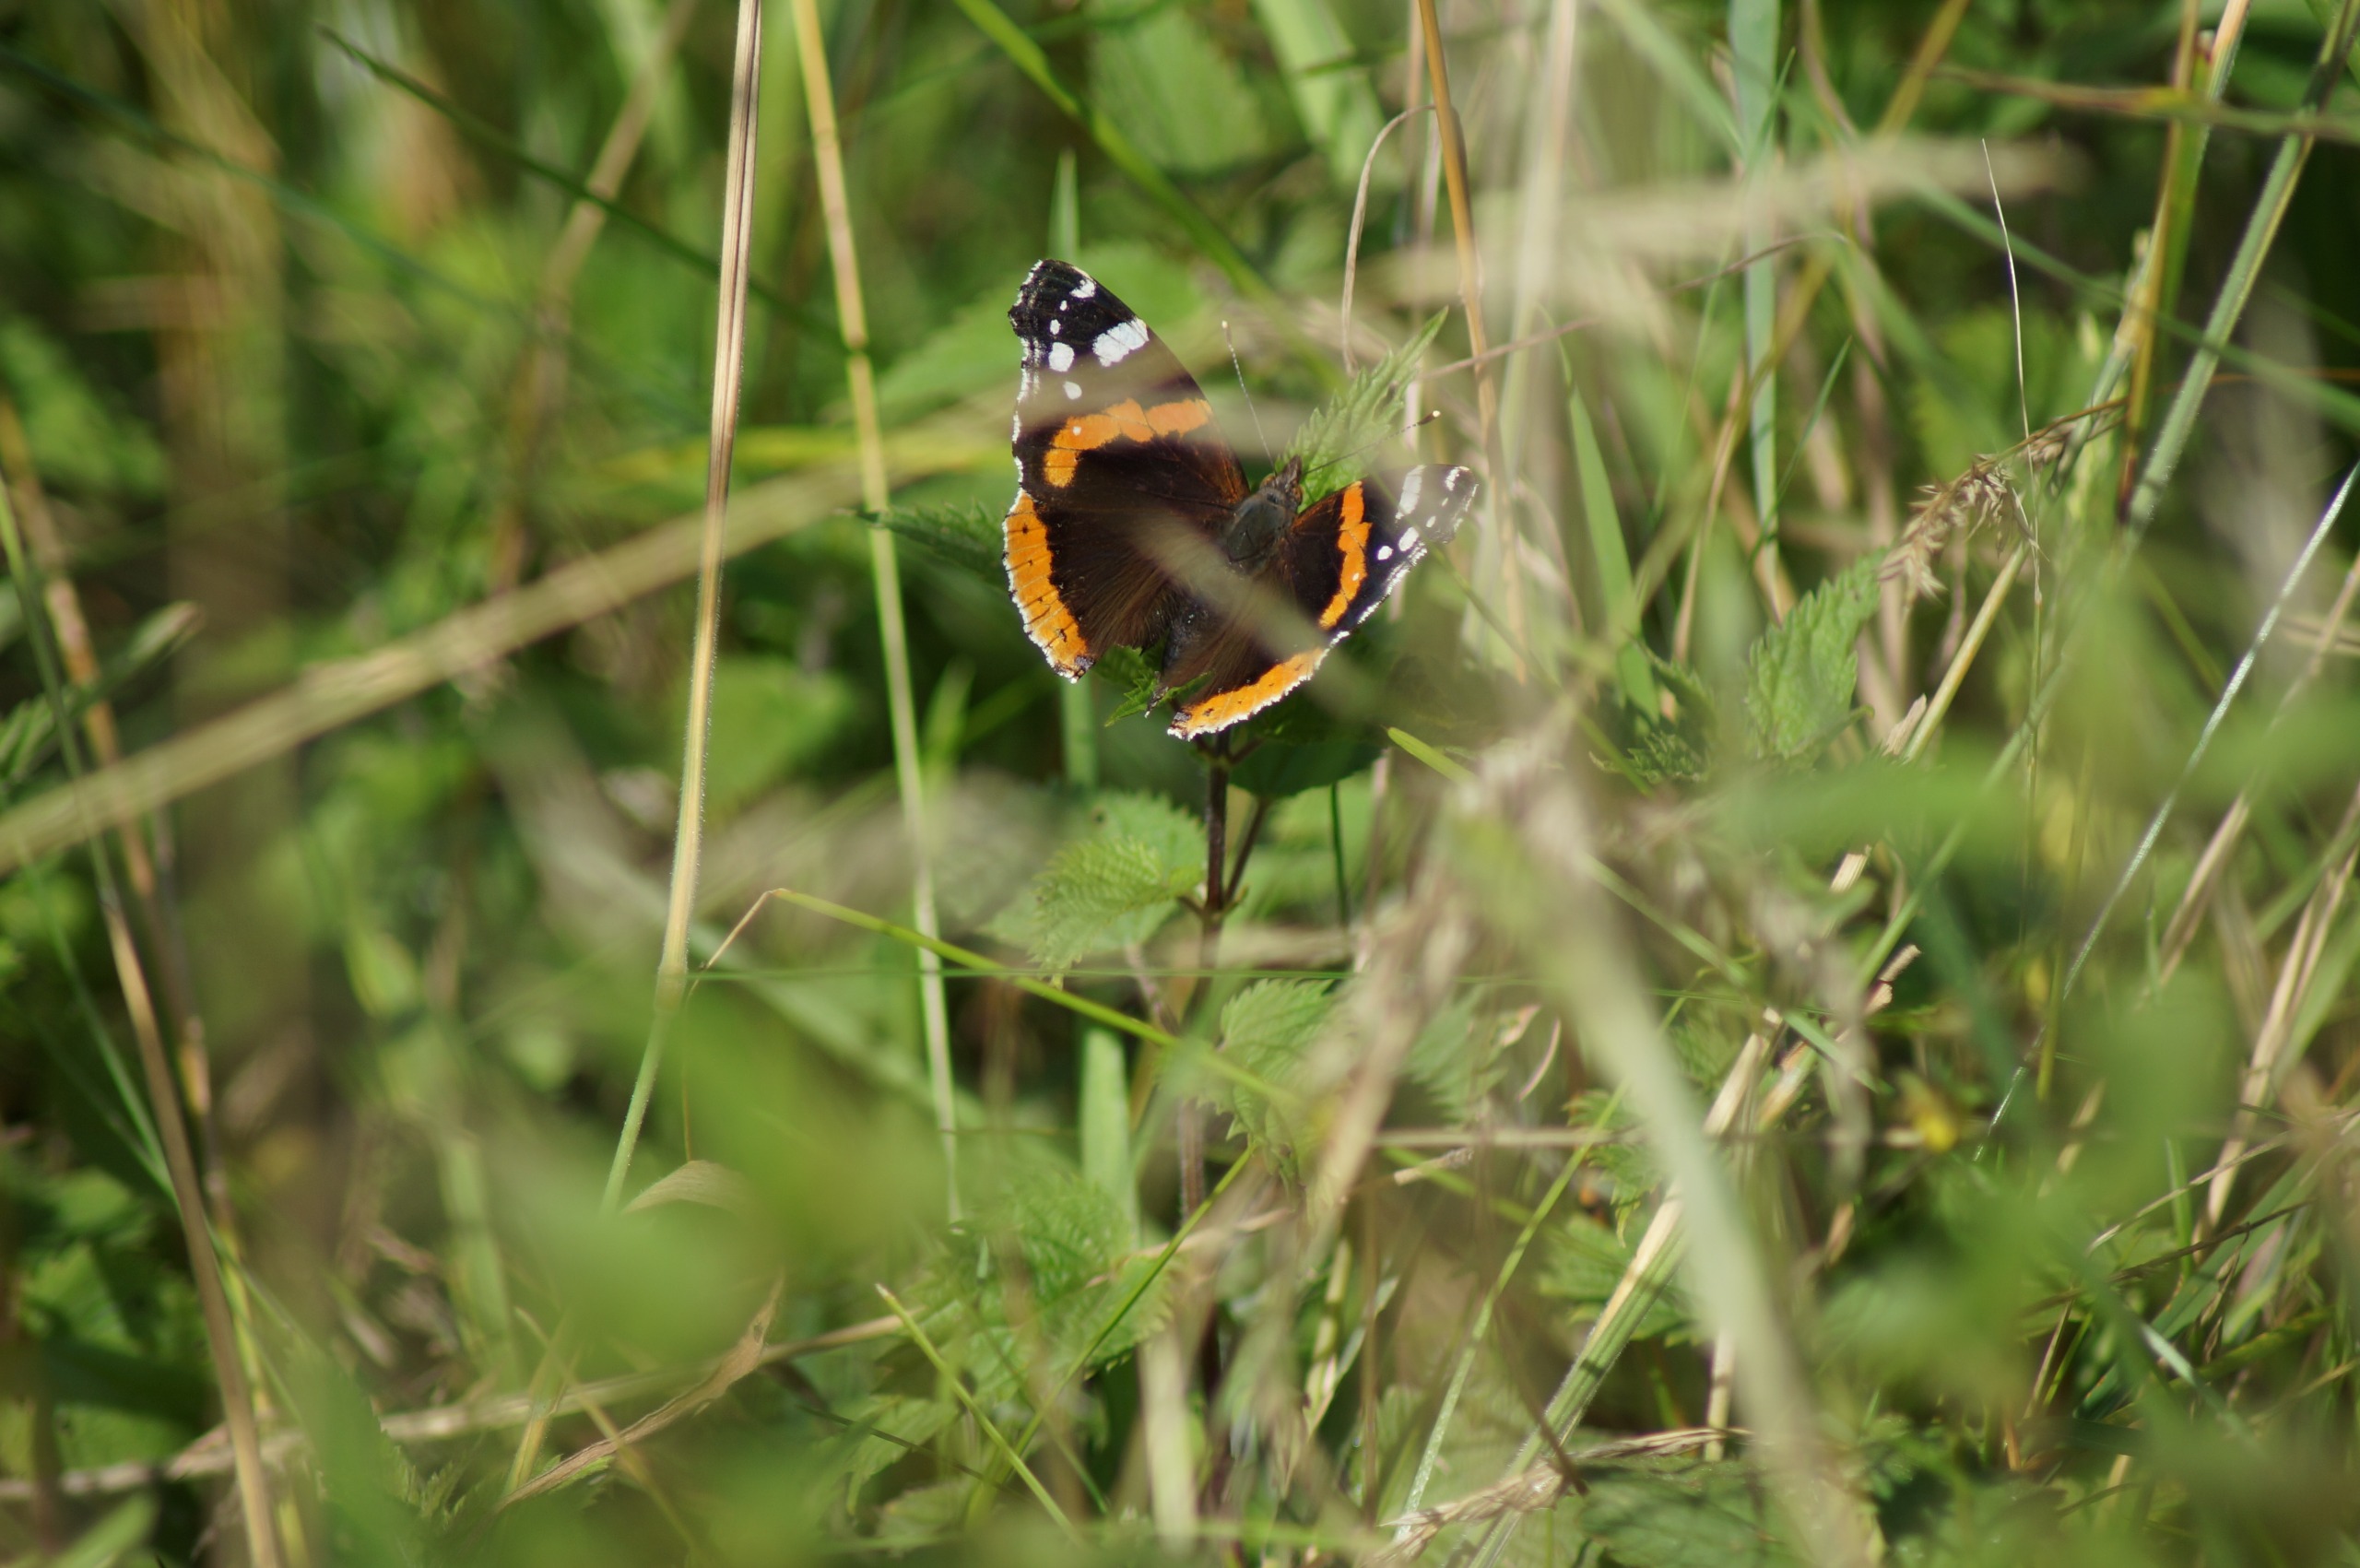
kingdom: Animalia
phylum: Arthropoda
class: Insecta
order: Lepidoptera
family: Nymphalidae
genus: Vanessa
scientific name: Vanessa atalanta
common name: Admiral
